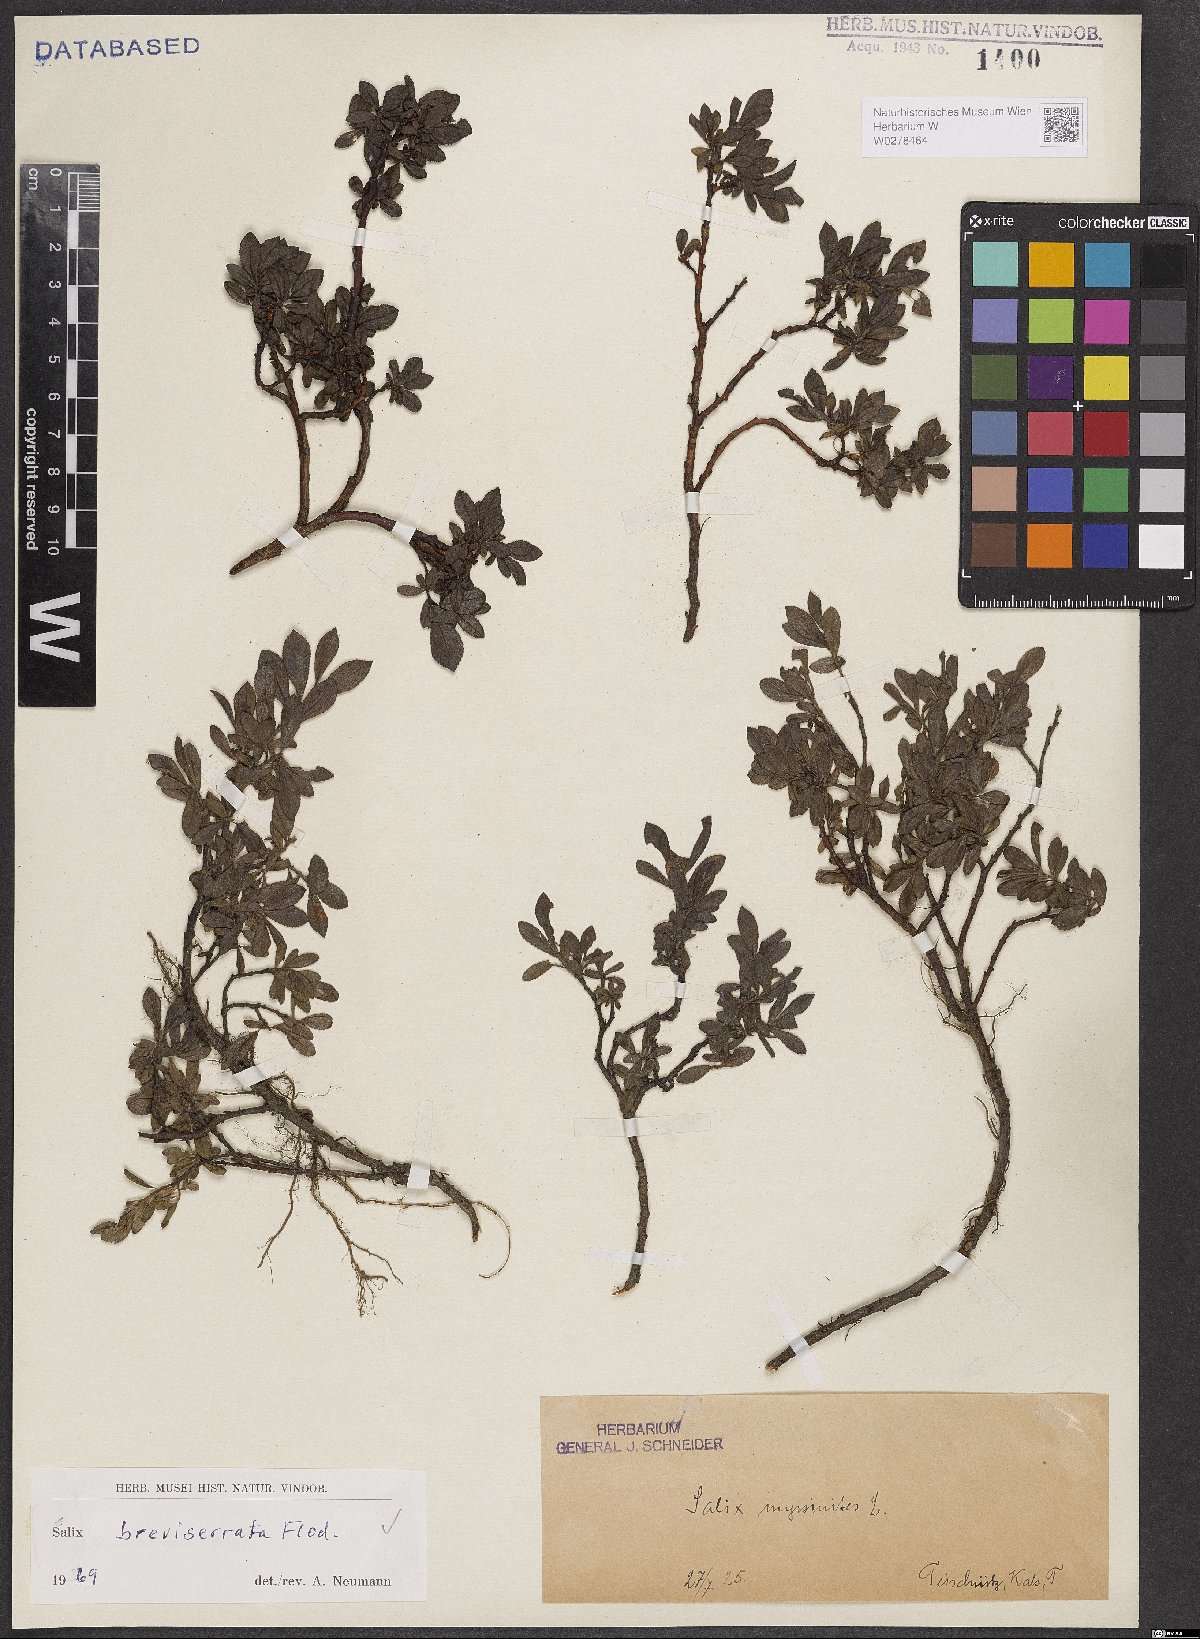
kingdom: Plantae
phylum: Tracheophyta
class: Magnoliopsida
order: Malpighiales
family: Salicaceae
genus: Salix
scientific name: Salix breviserrata
